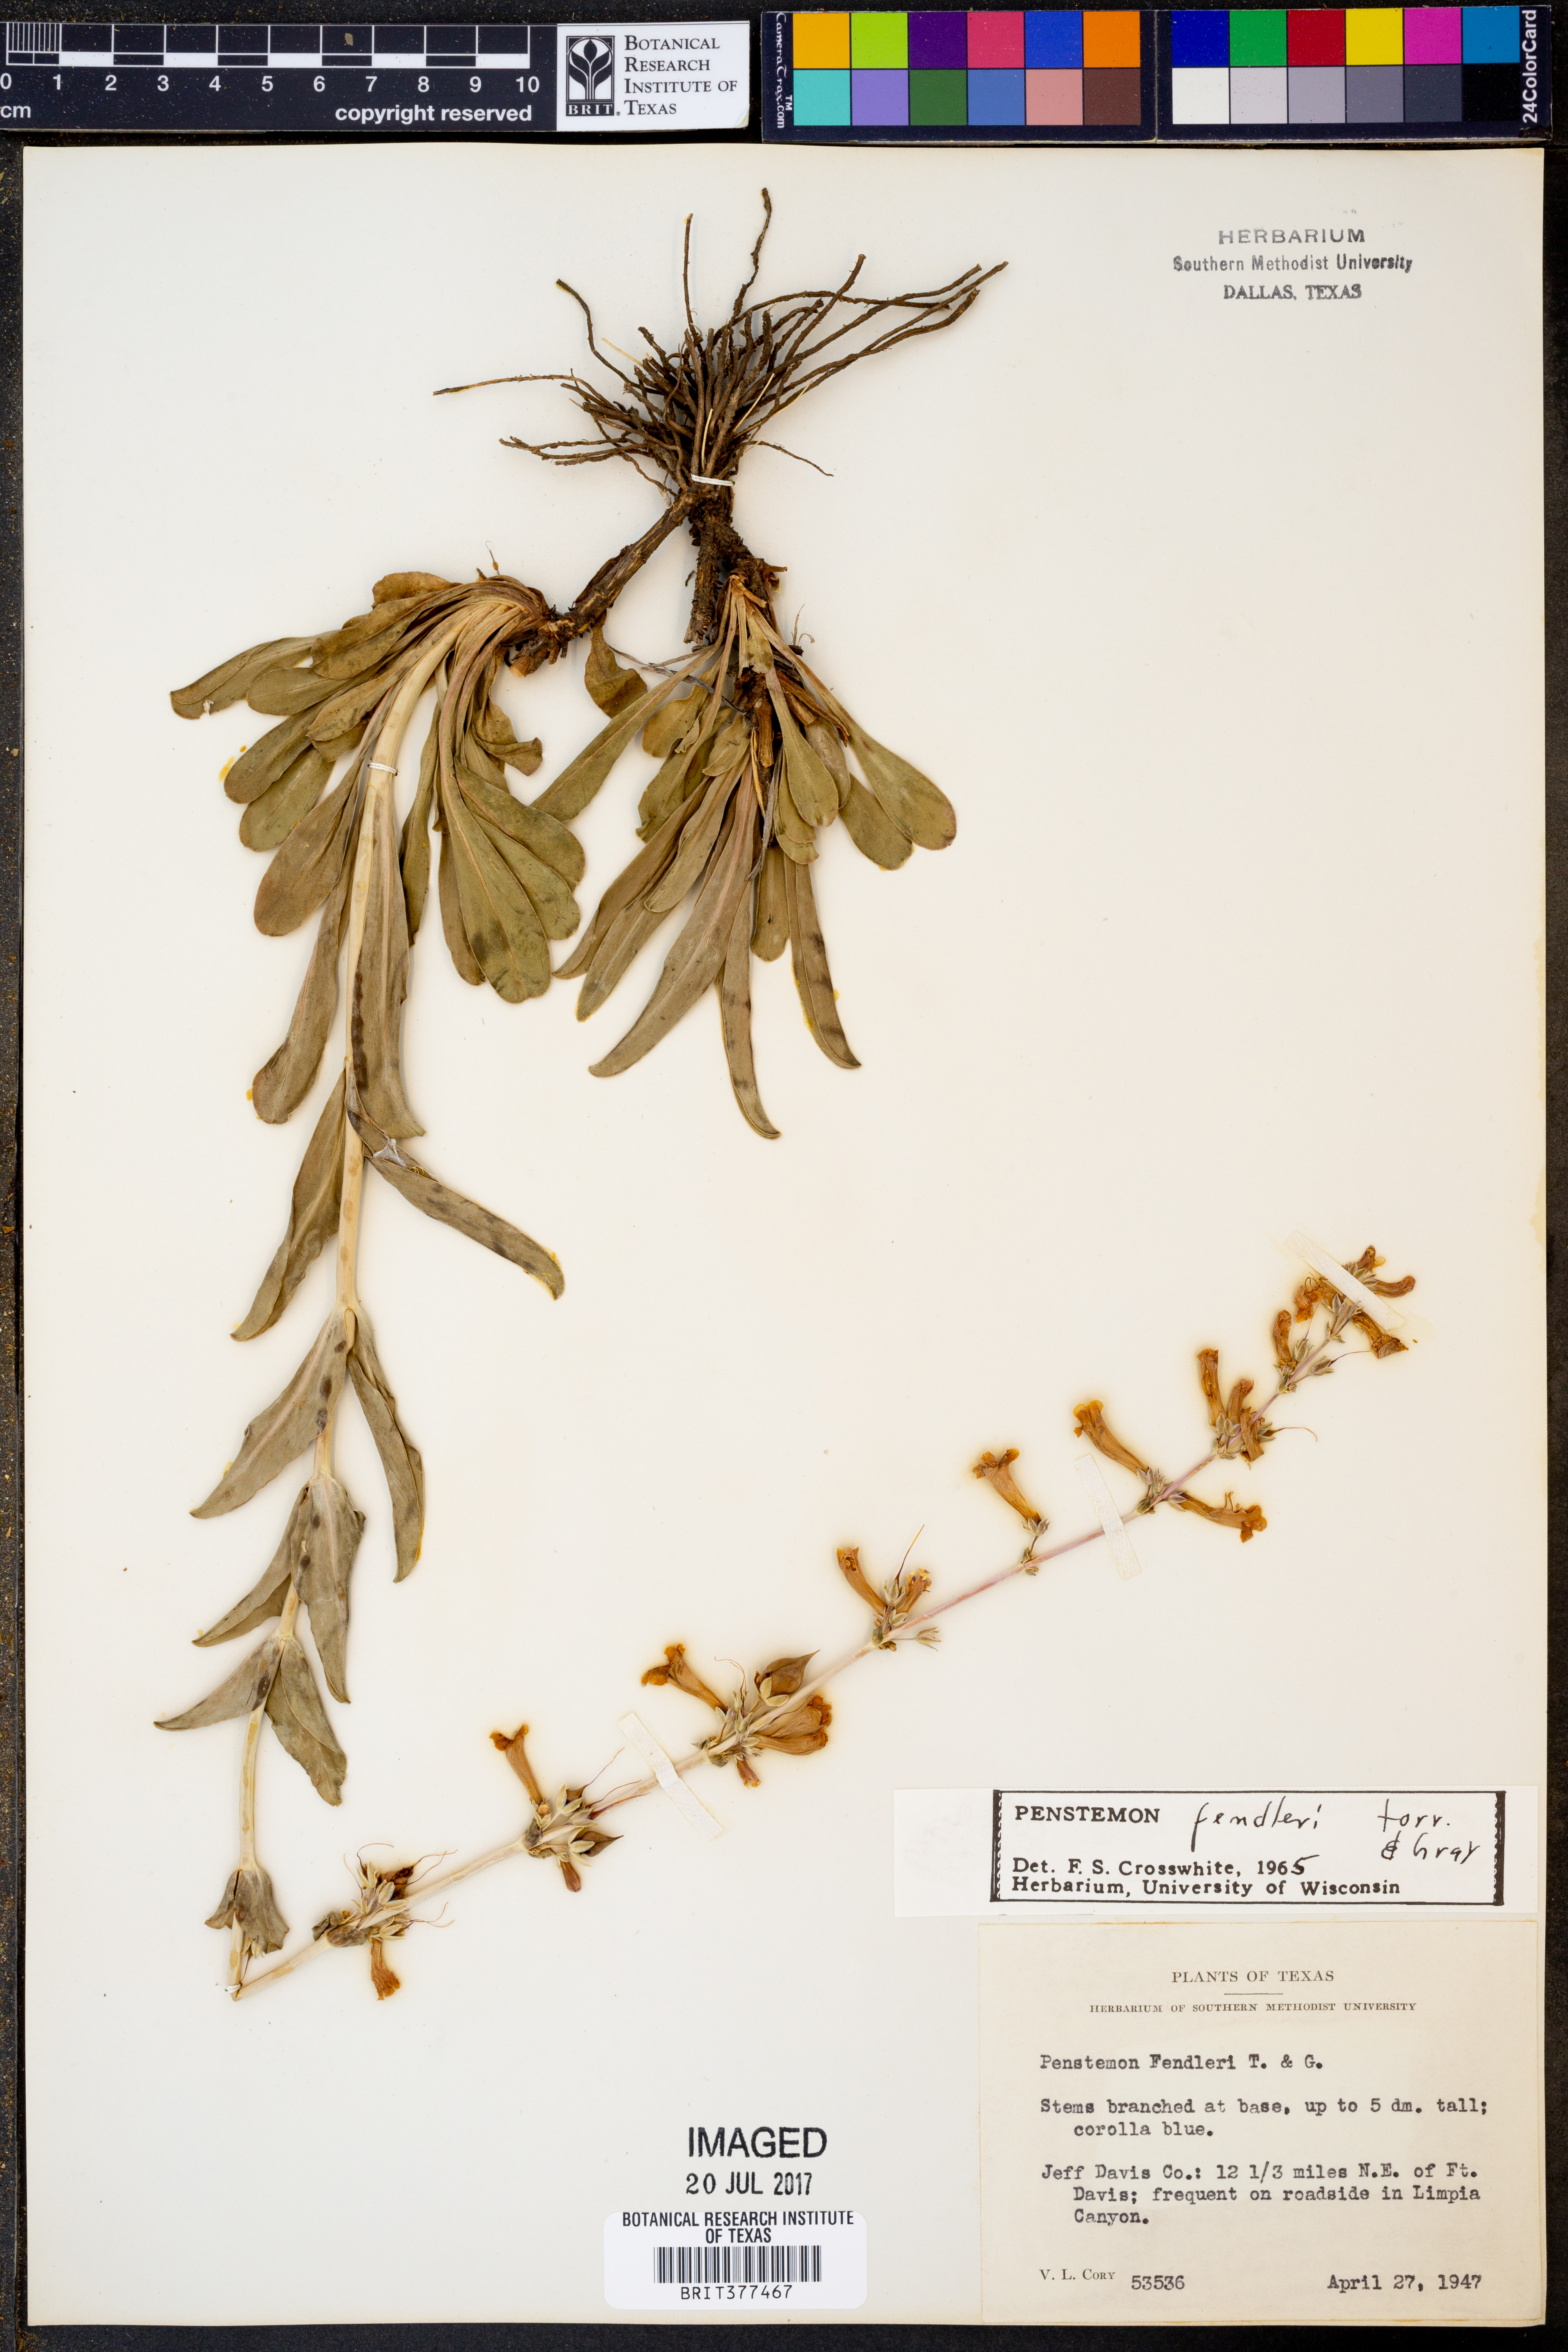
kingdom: Plantae
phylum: Tracheophyta
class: Magnoliopsida
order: Lamiales
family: Plantaginaceae
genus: Penstemon
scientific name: Penstemon fendleri
